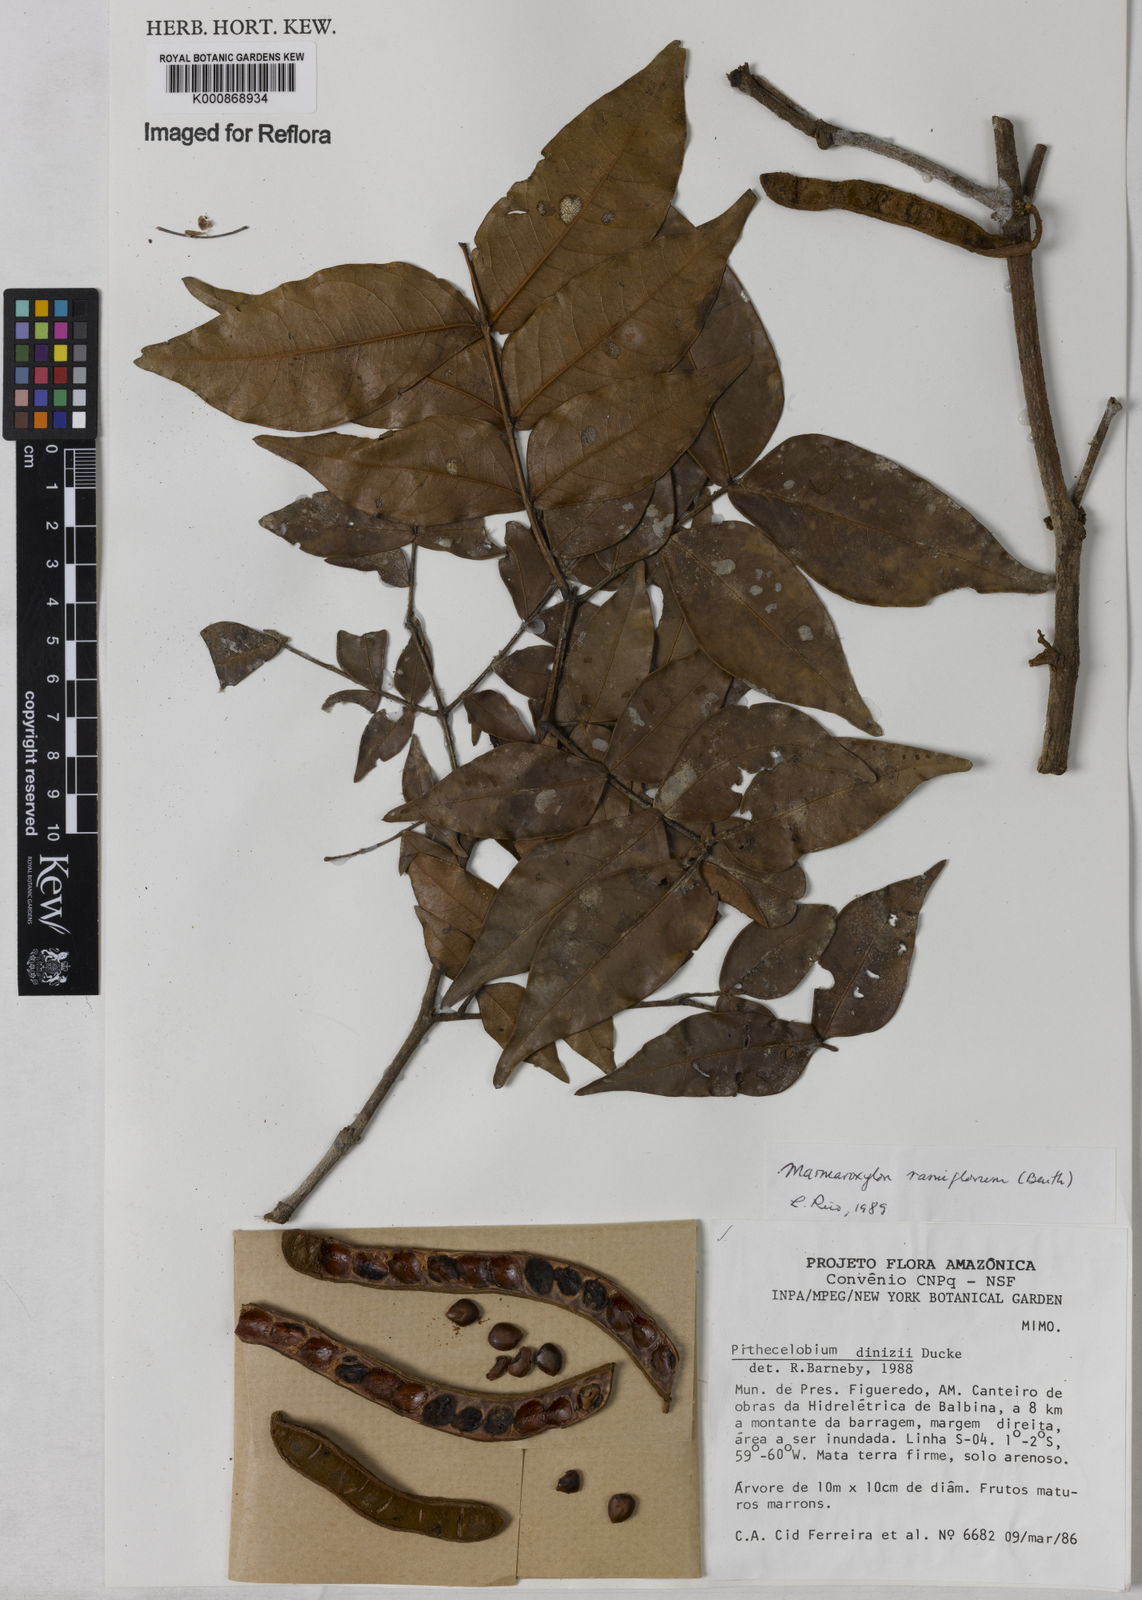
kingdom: Plantae
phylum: Tracheophyta
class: Magnoliopsida
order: Fabales
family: Fabaceae
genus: Zygia
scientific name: Zygia dinizii
